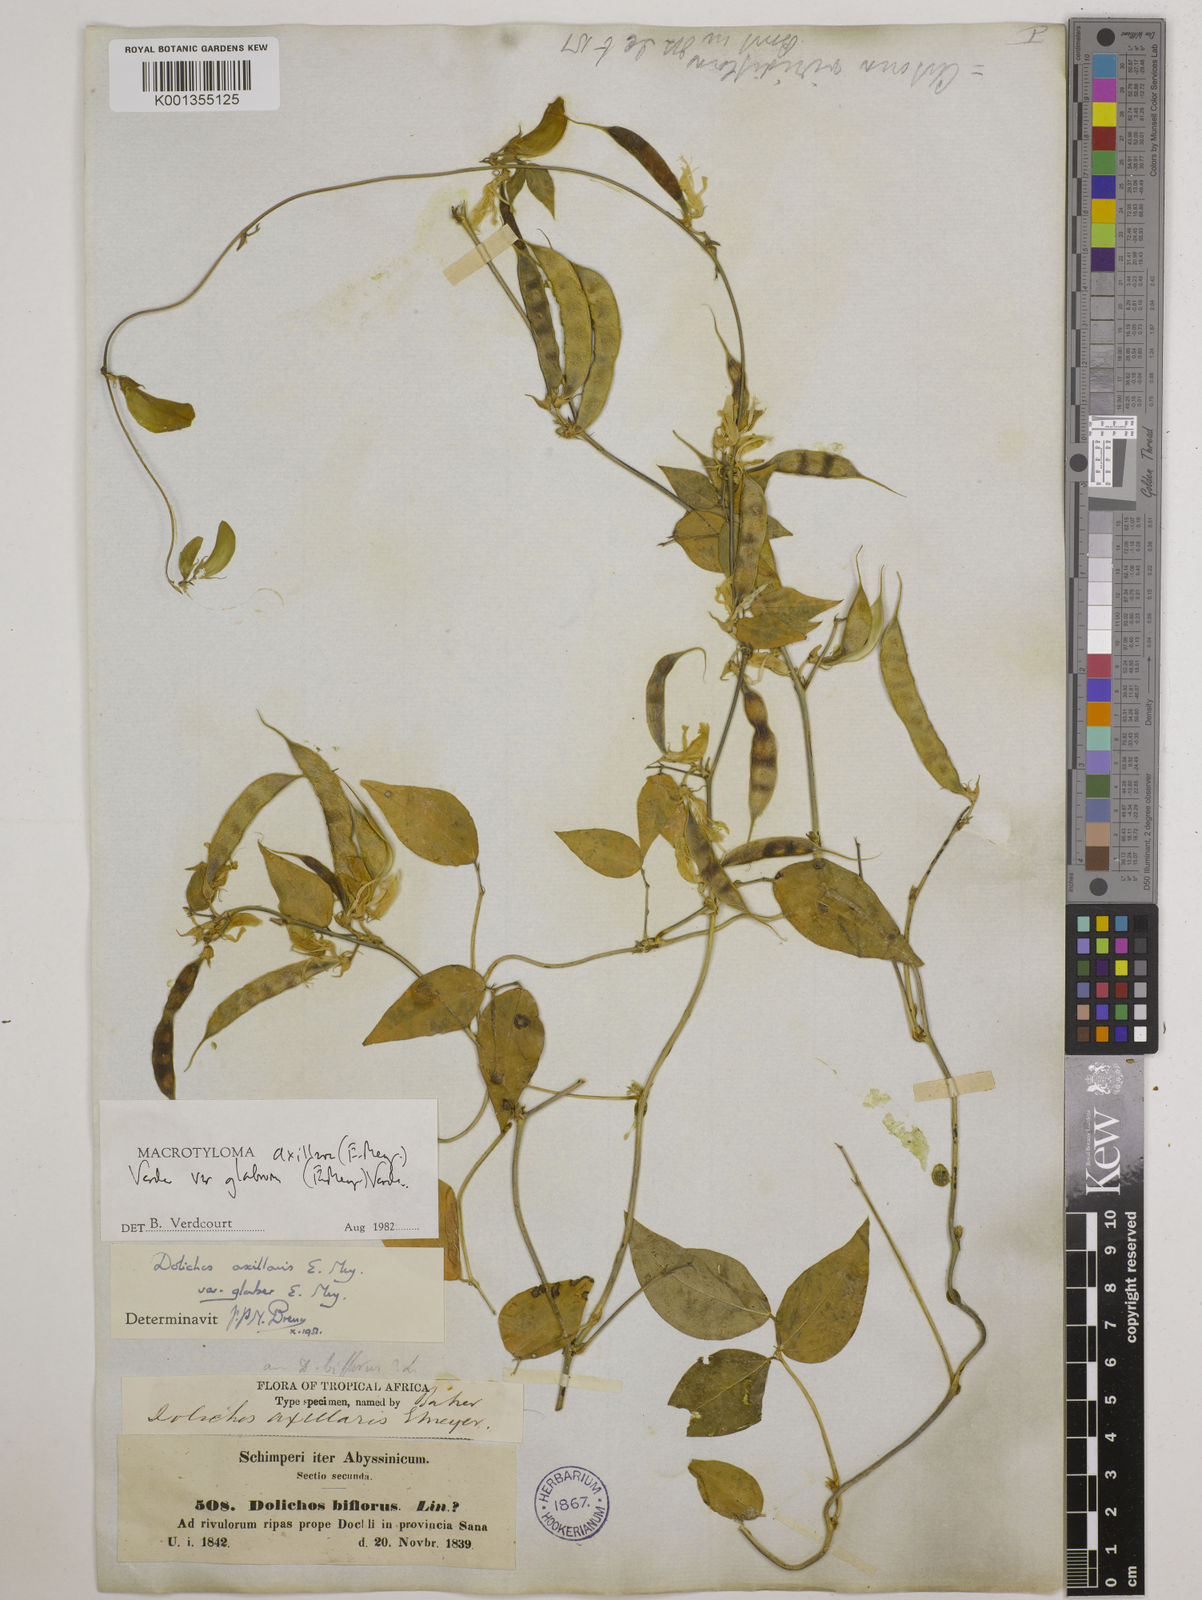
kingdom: Plantae
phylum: Tracheophyta
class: Magnoliopsida
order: Fabales
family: Fabaceae
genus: Macrotyloma
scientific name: Macrotyloma
